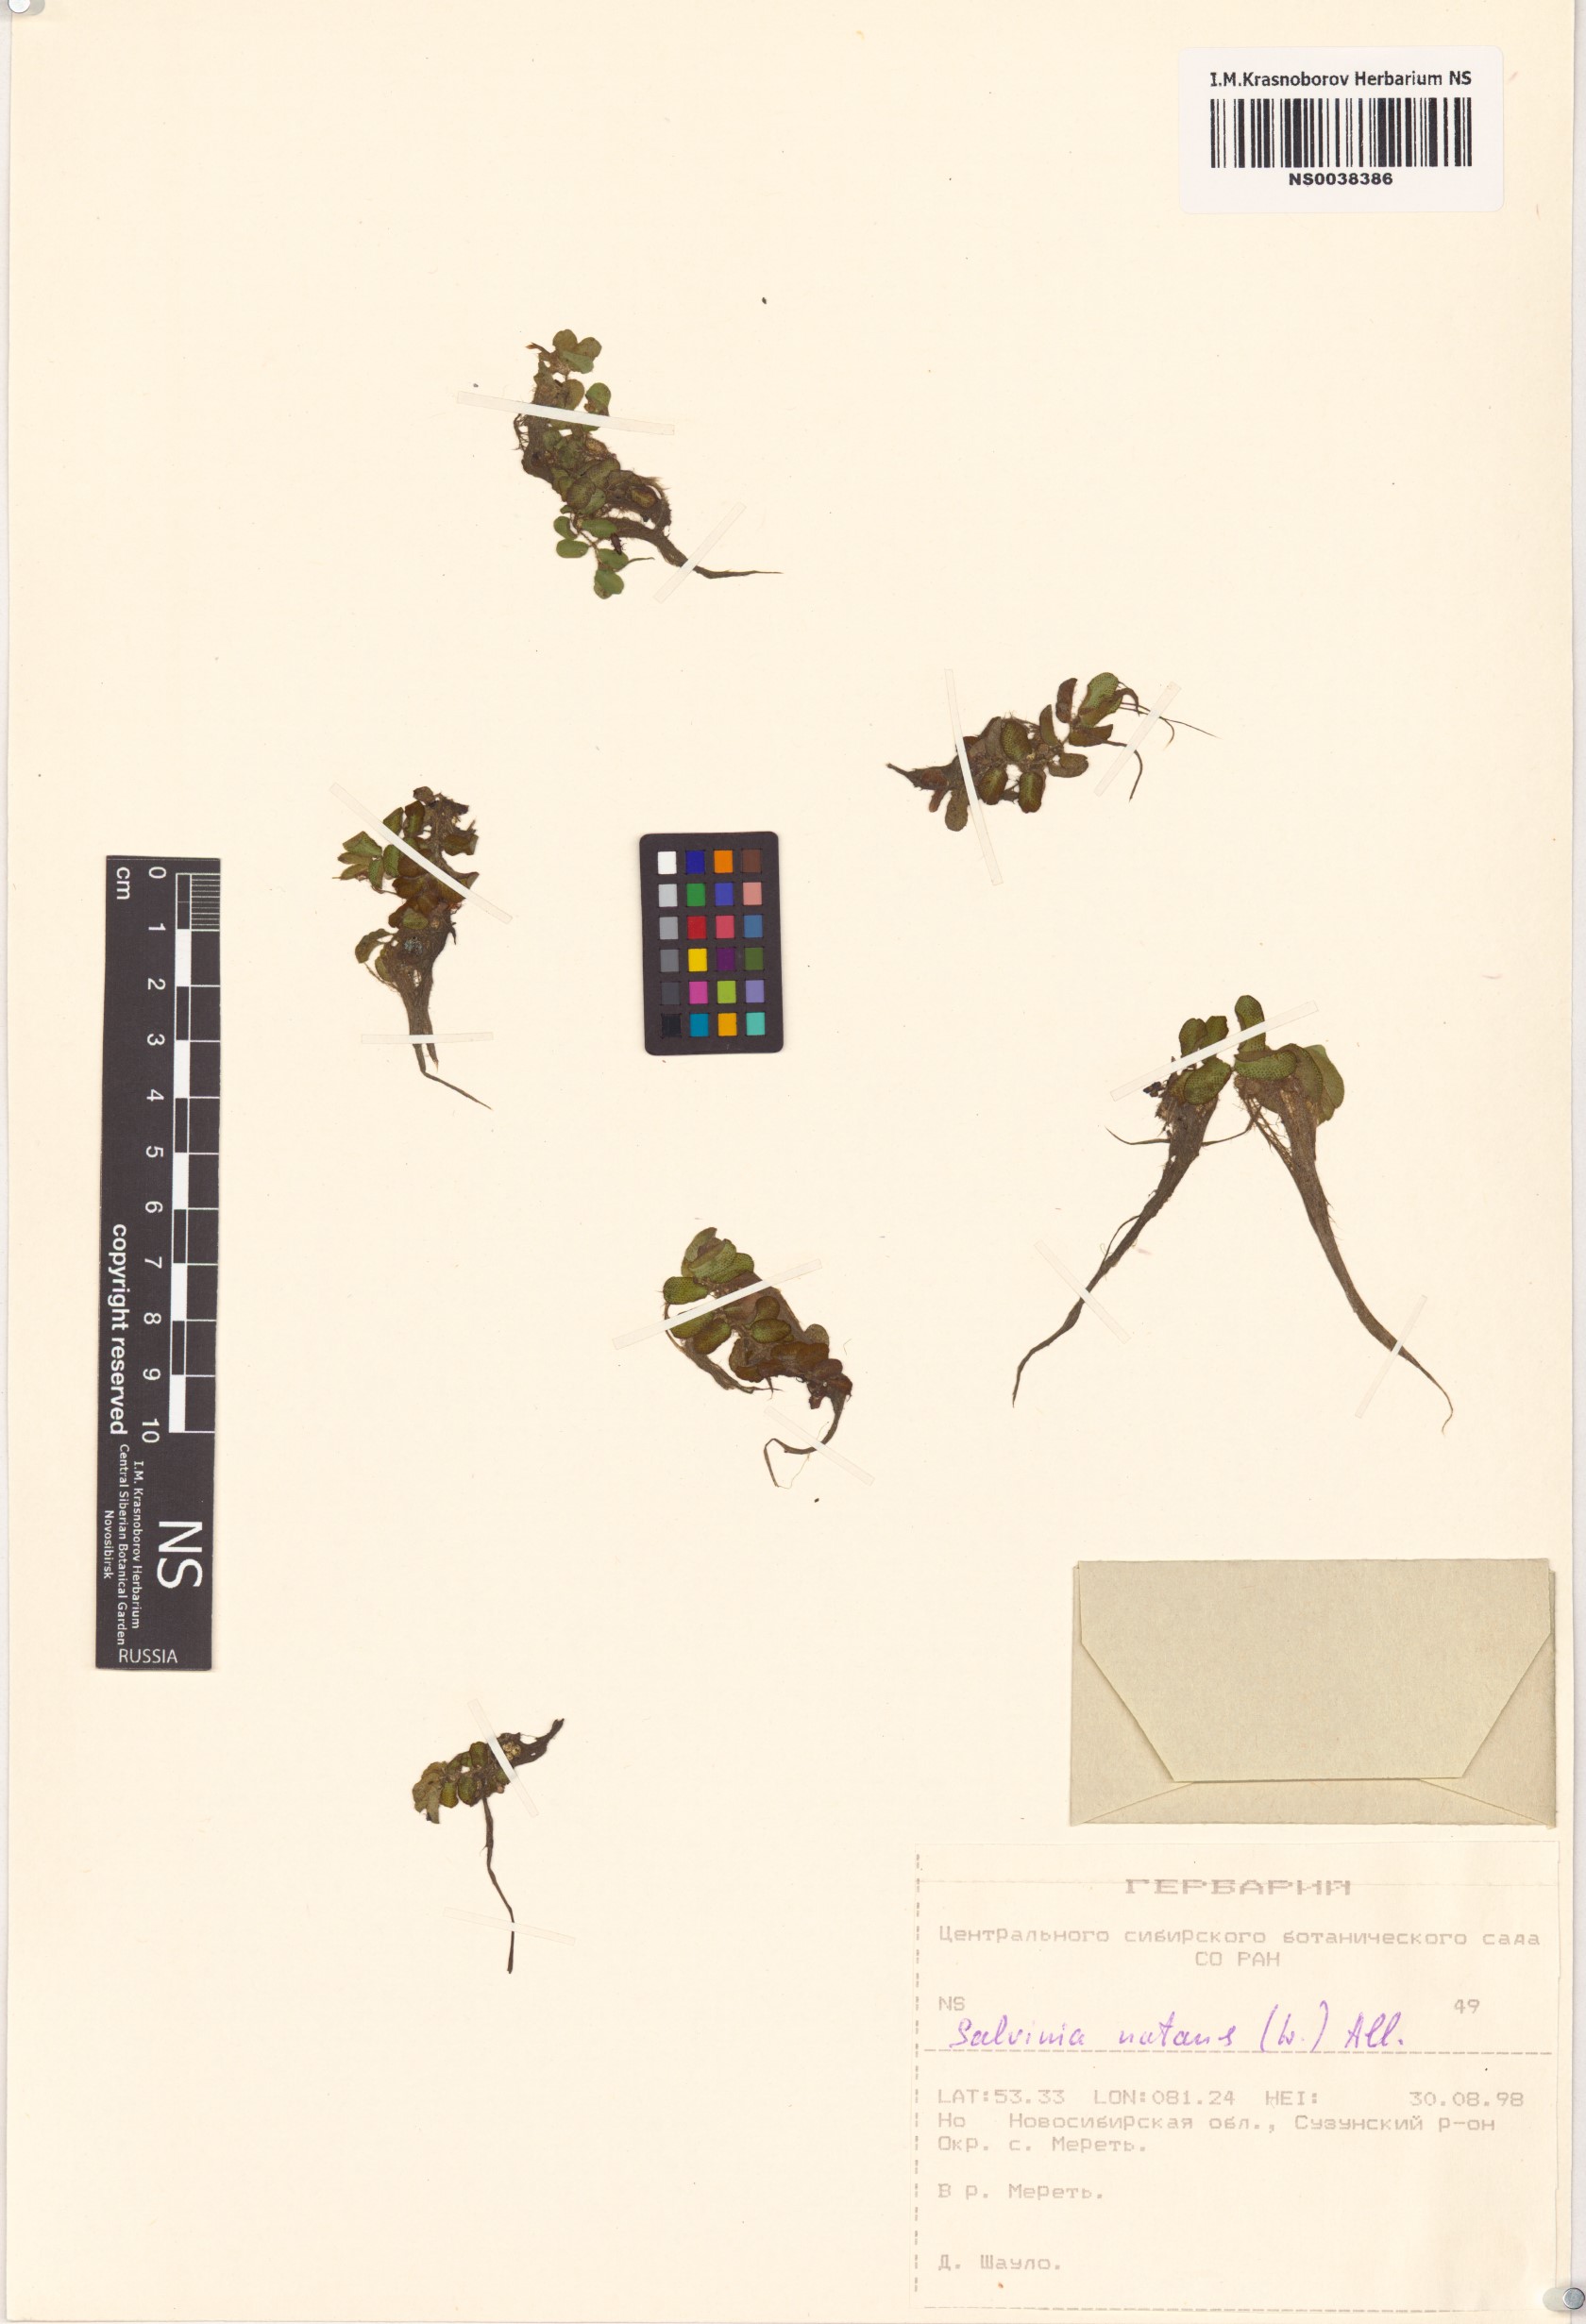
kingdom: Plantae
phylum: Tracheophyta
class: Polypodiopsida
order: Salviniales
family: Salviniaceae
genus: Salvinia
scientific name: Salvinia natans
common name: Floating fern
